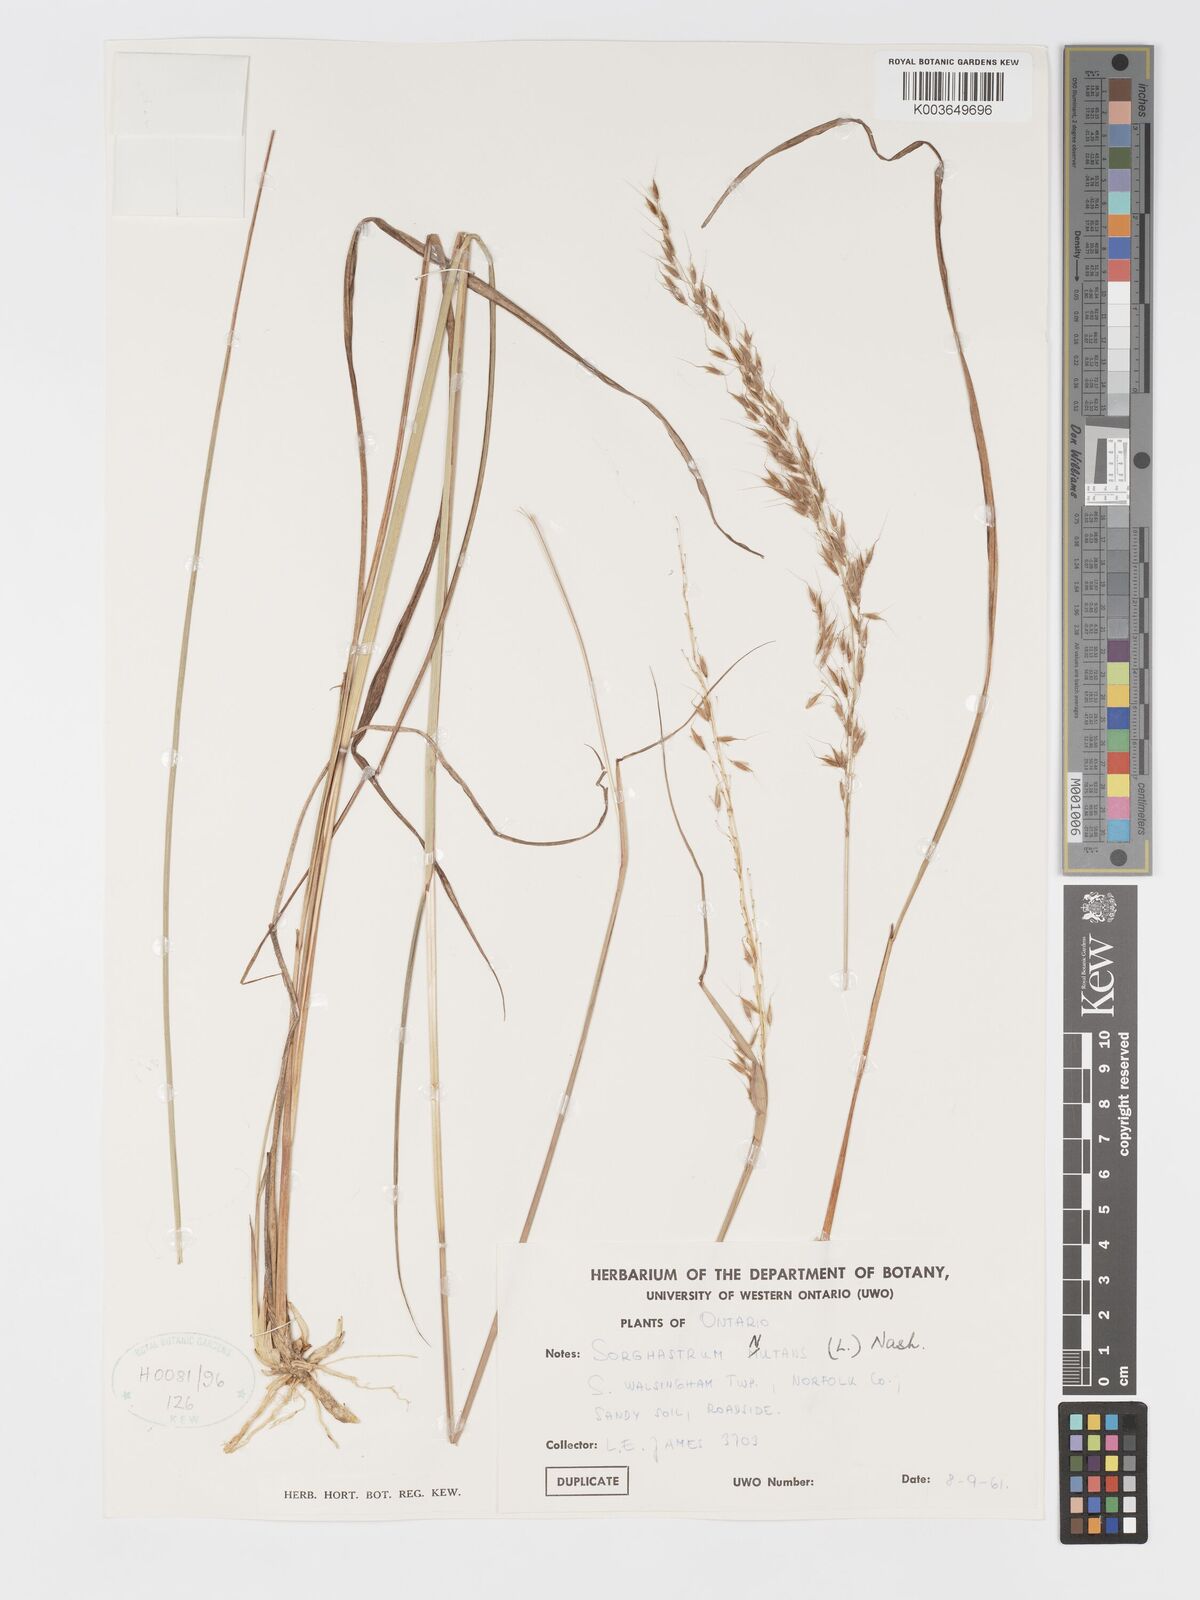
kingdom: Plantae
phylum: Tracheophyta
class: Liliopsida
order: Poales
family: Poaceae
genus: Sorghastrum
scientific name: Sorghastrum nutans
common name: Indian grass
